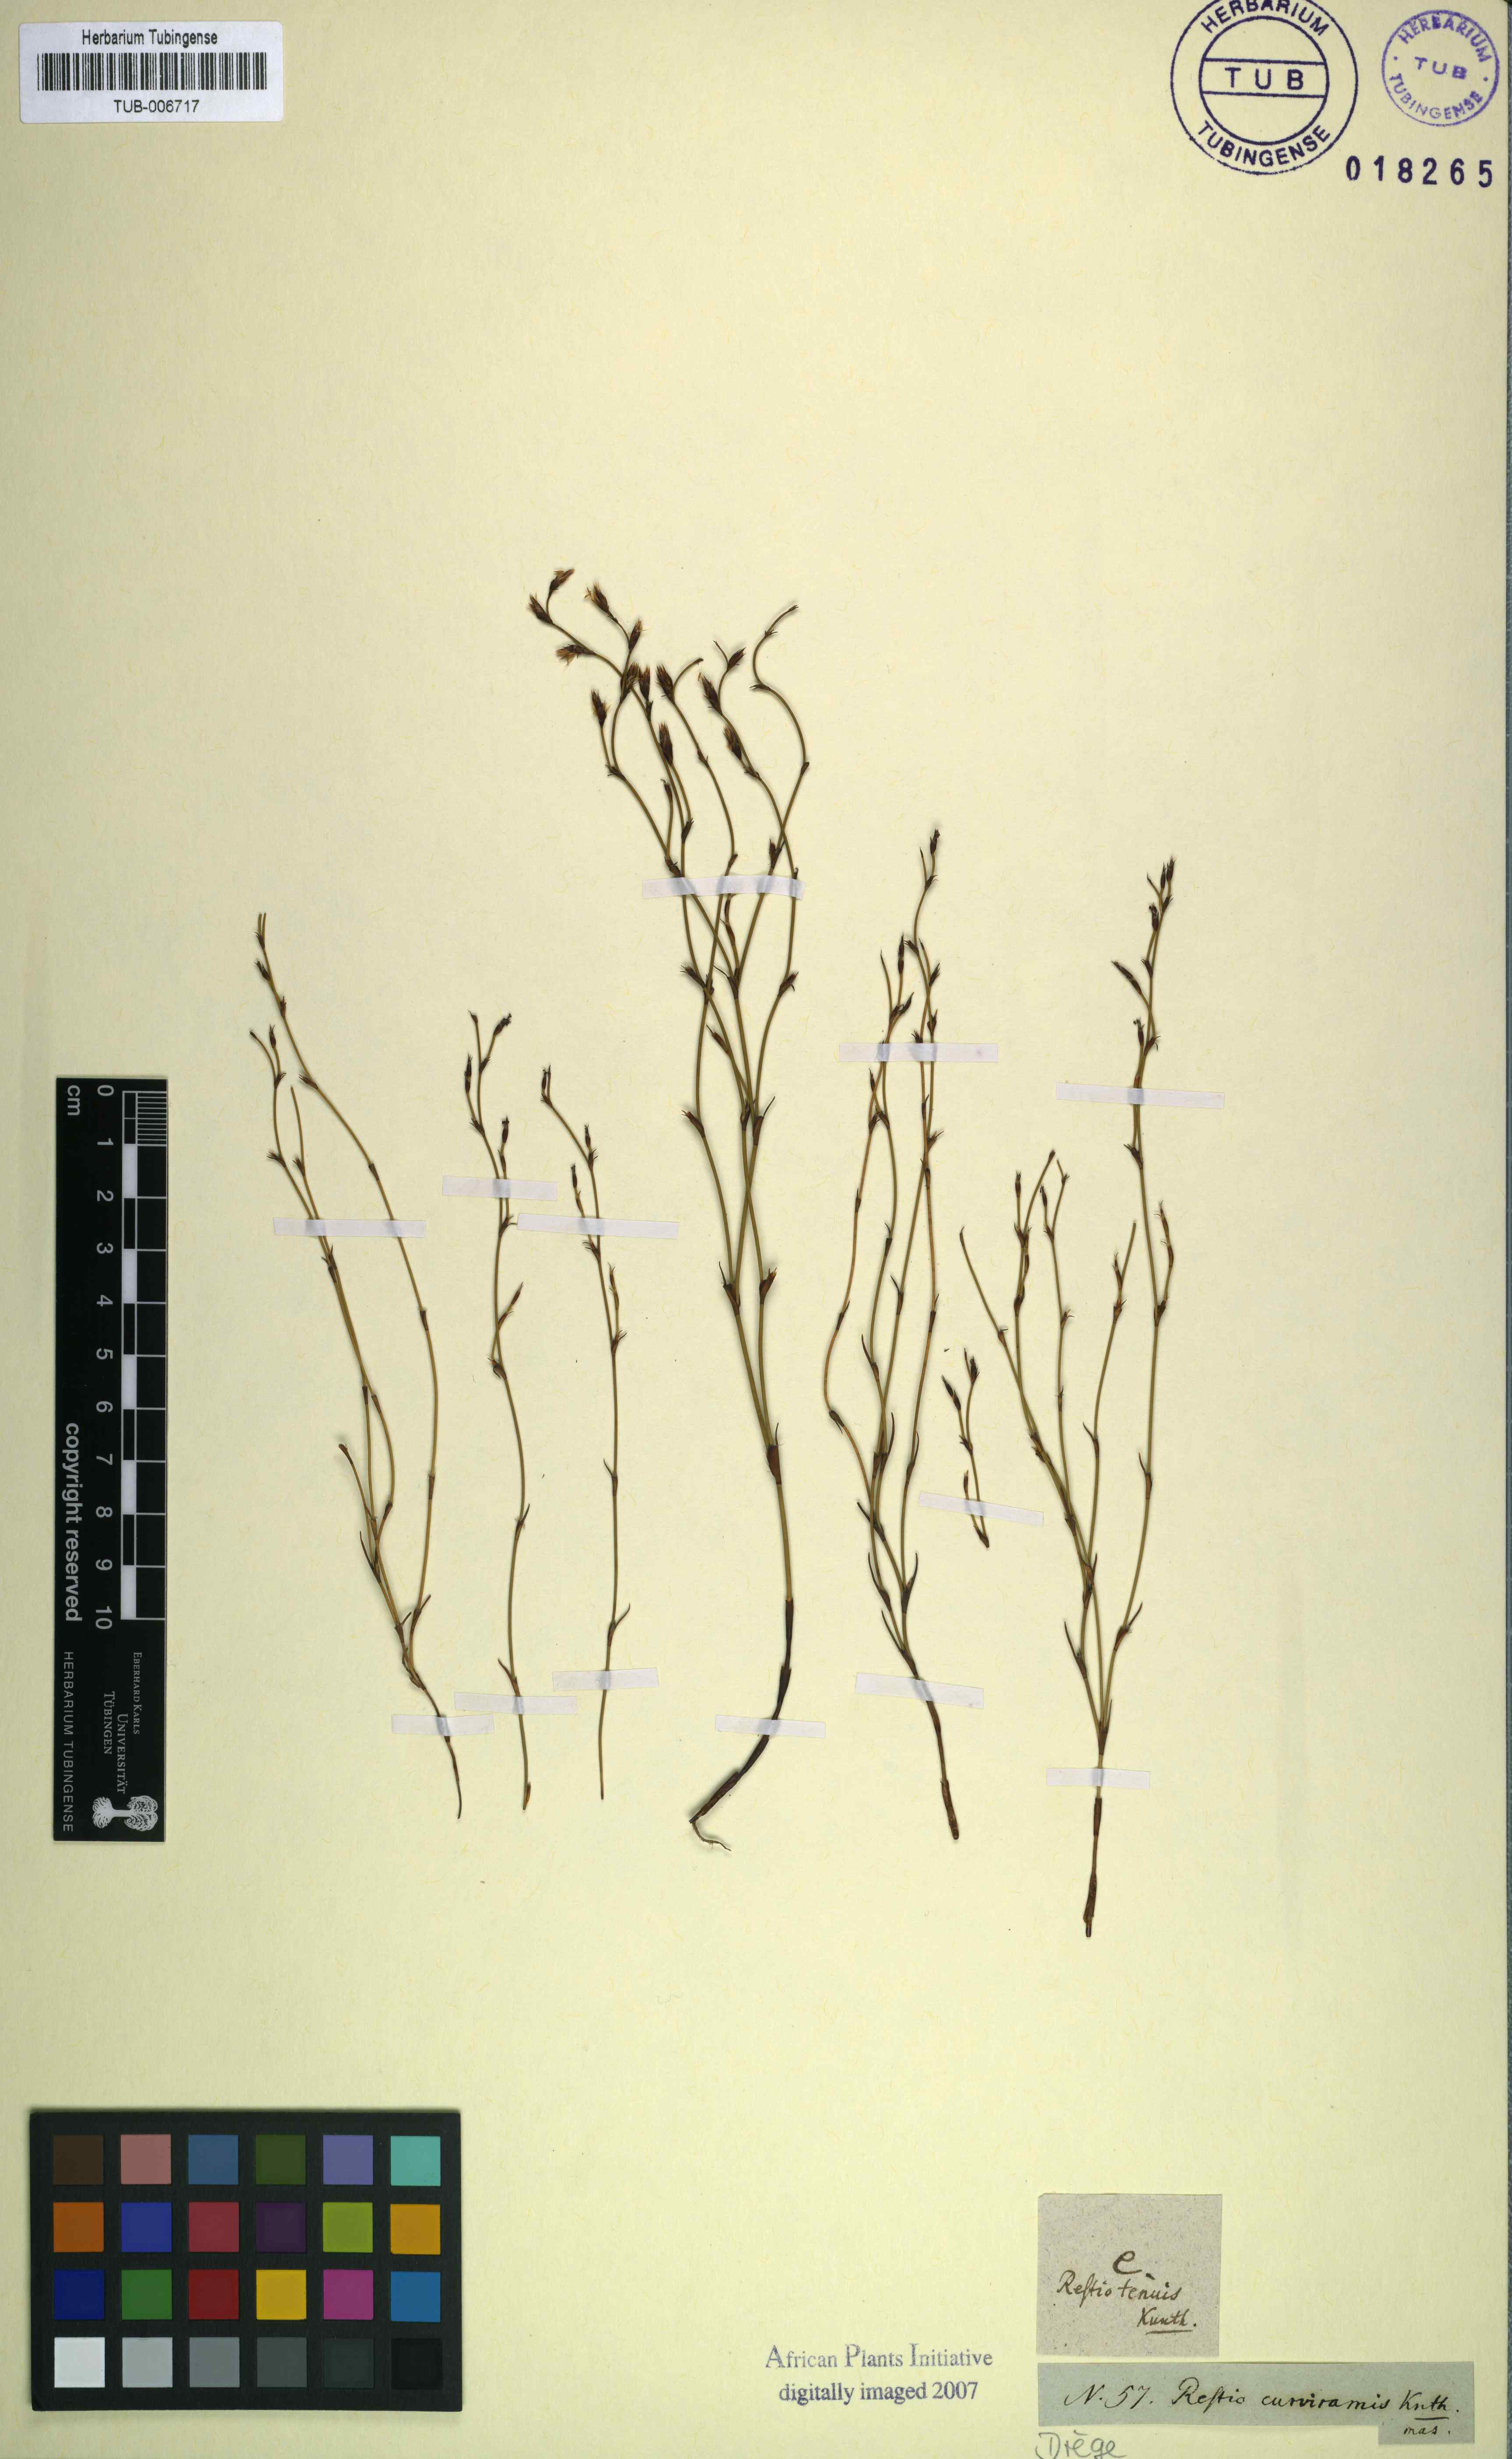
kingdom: Plantae
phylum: Tracheophyta
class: Liliopsida
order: Poales
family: Restionaceae
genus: Restio
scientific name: Restio curviramis
